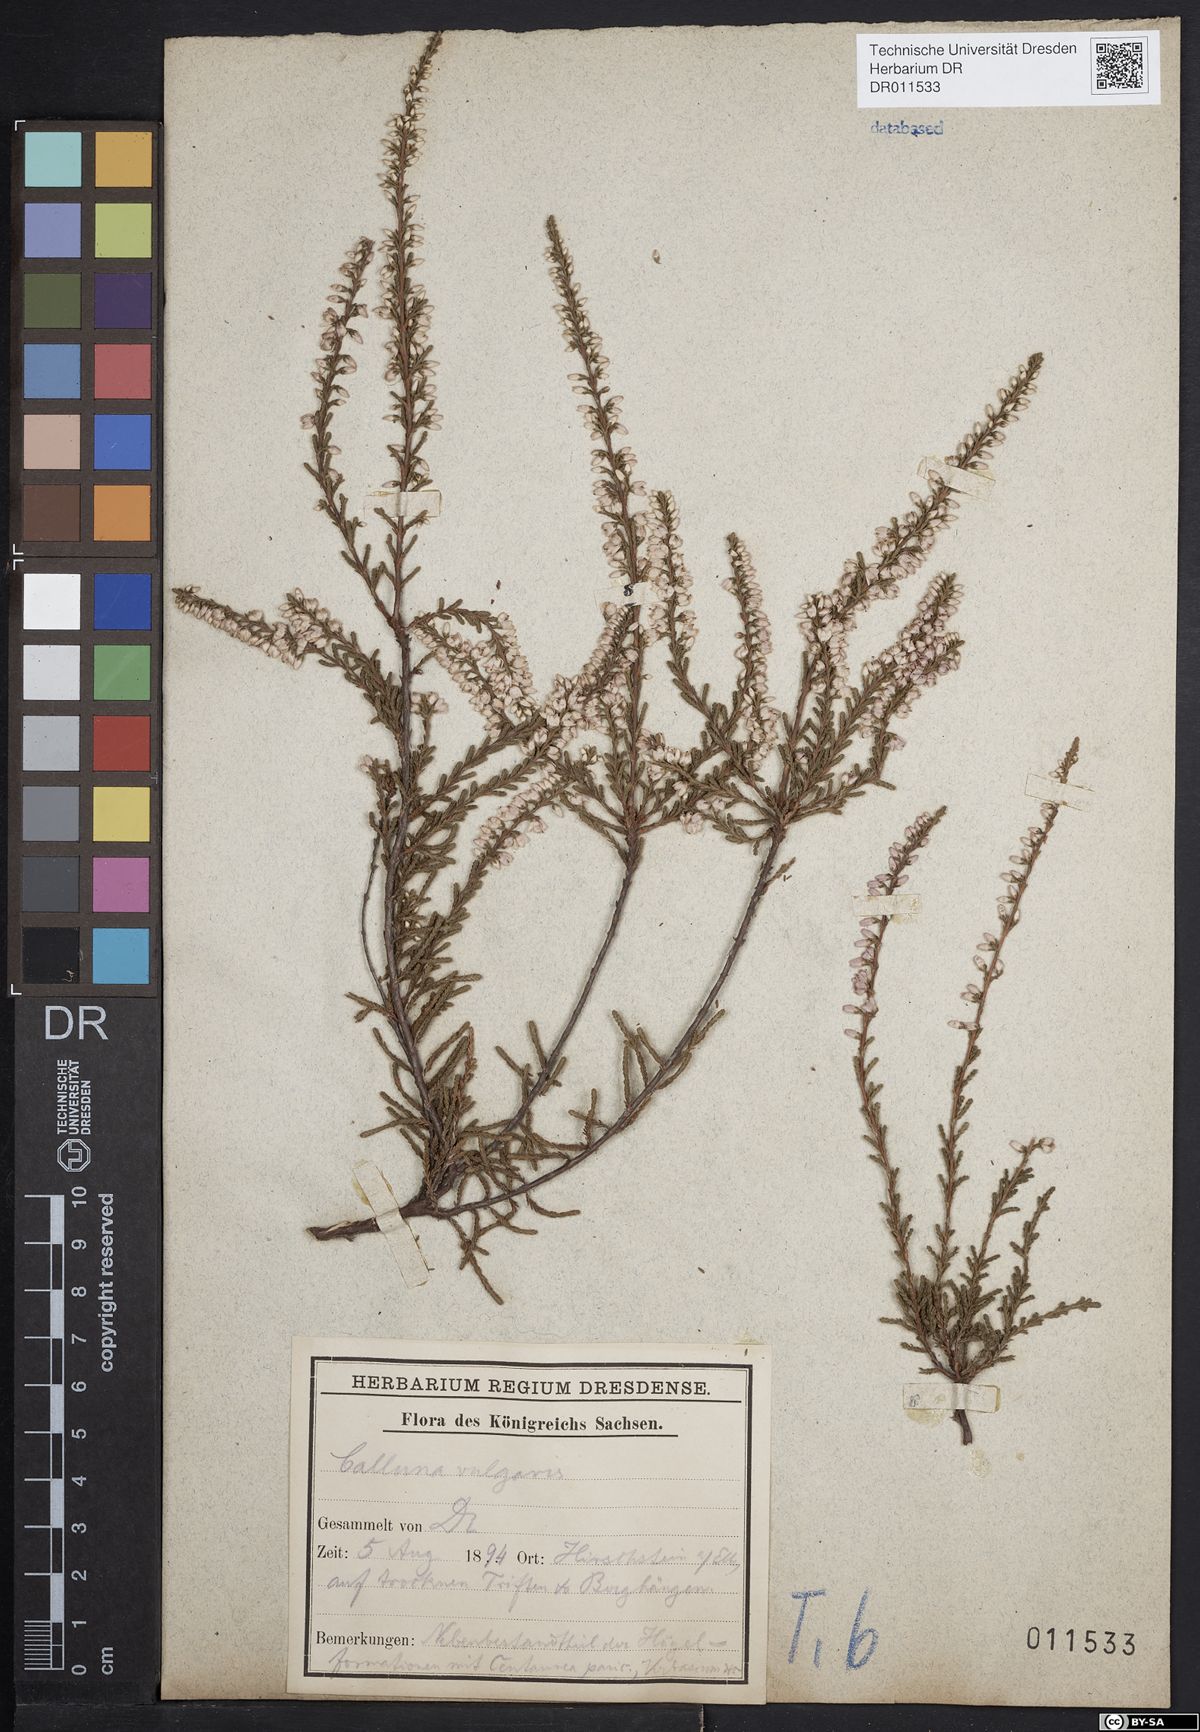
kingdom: Plantae
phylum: Tracheophyta
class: Magnoliopsida
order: Ericales
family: Ericaceae
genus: Calluna
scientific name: Calluna vulgaris
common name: Heather
